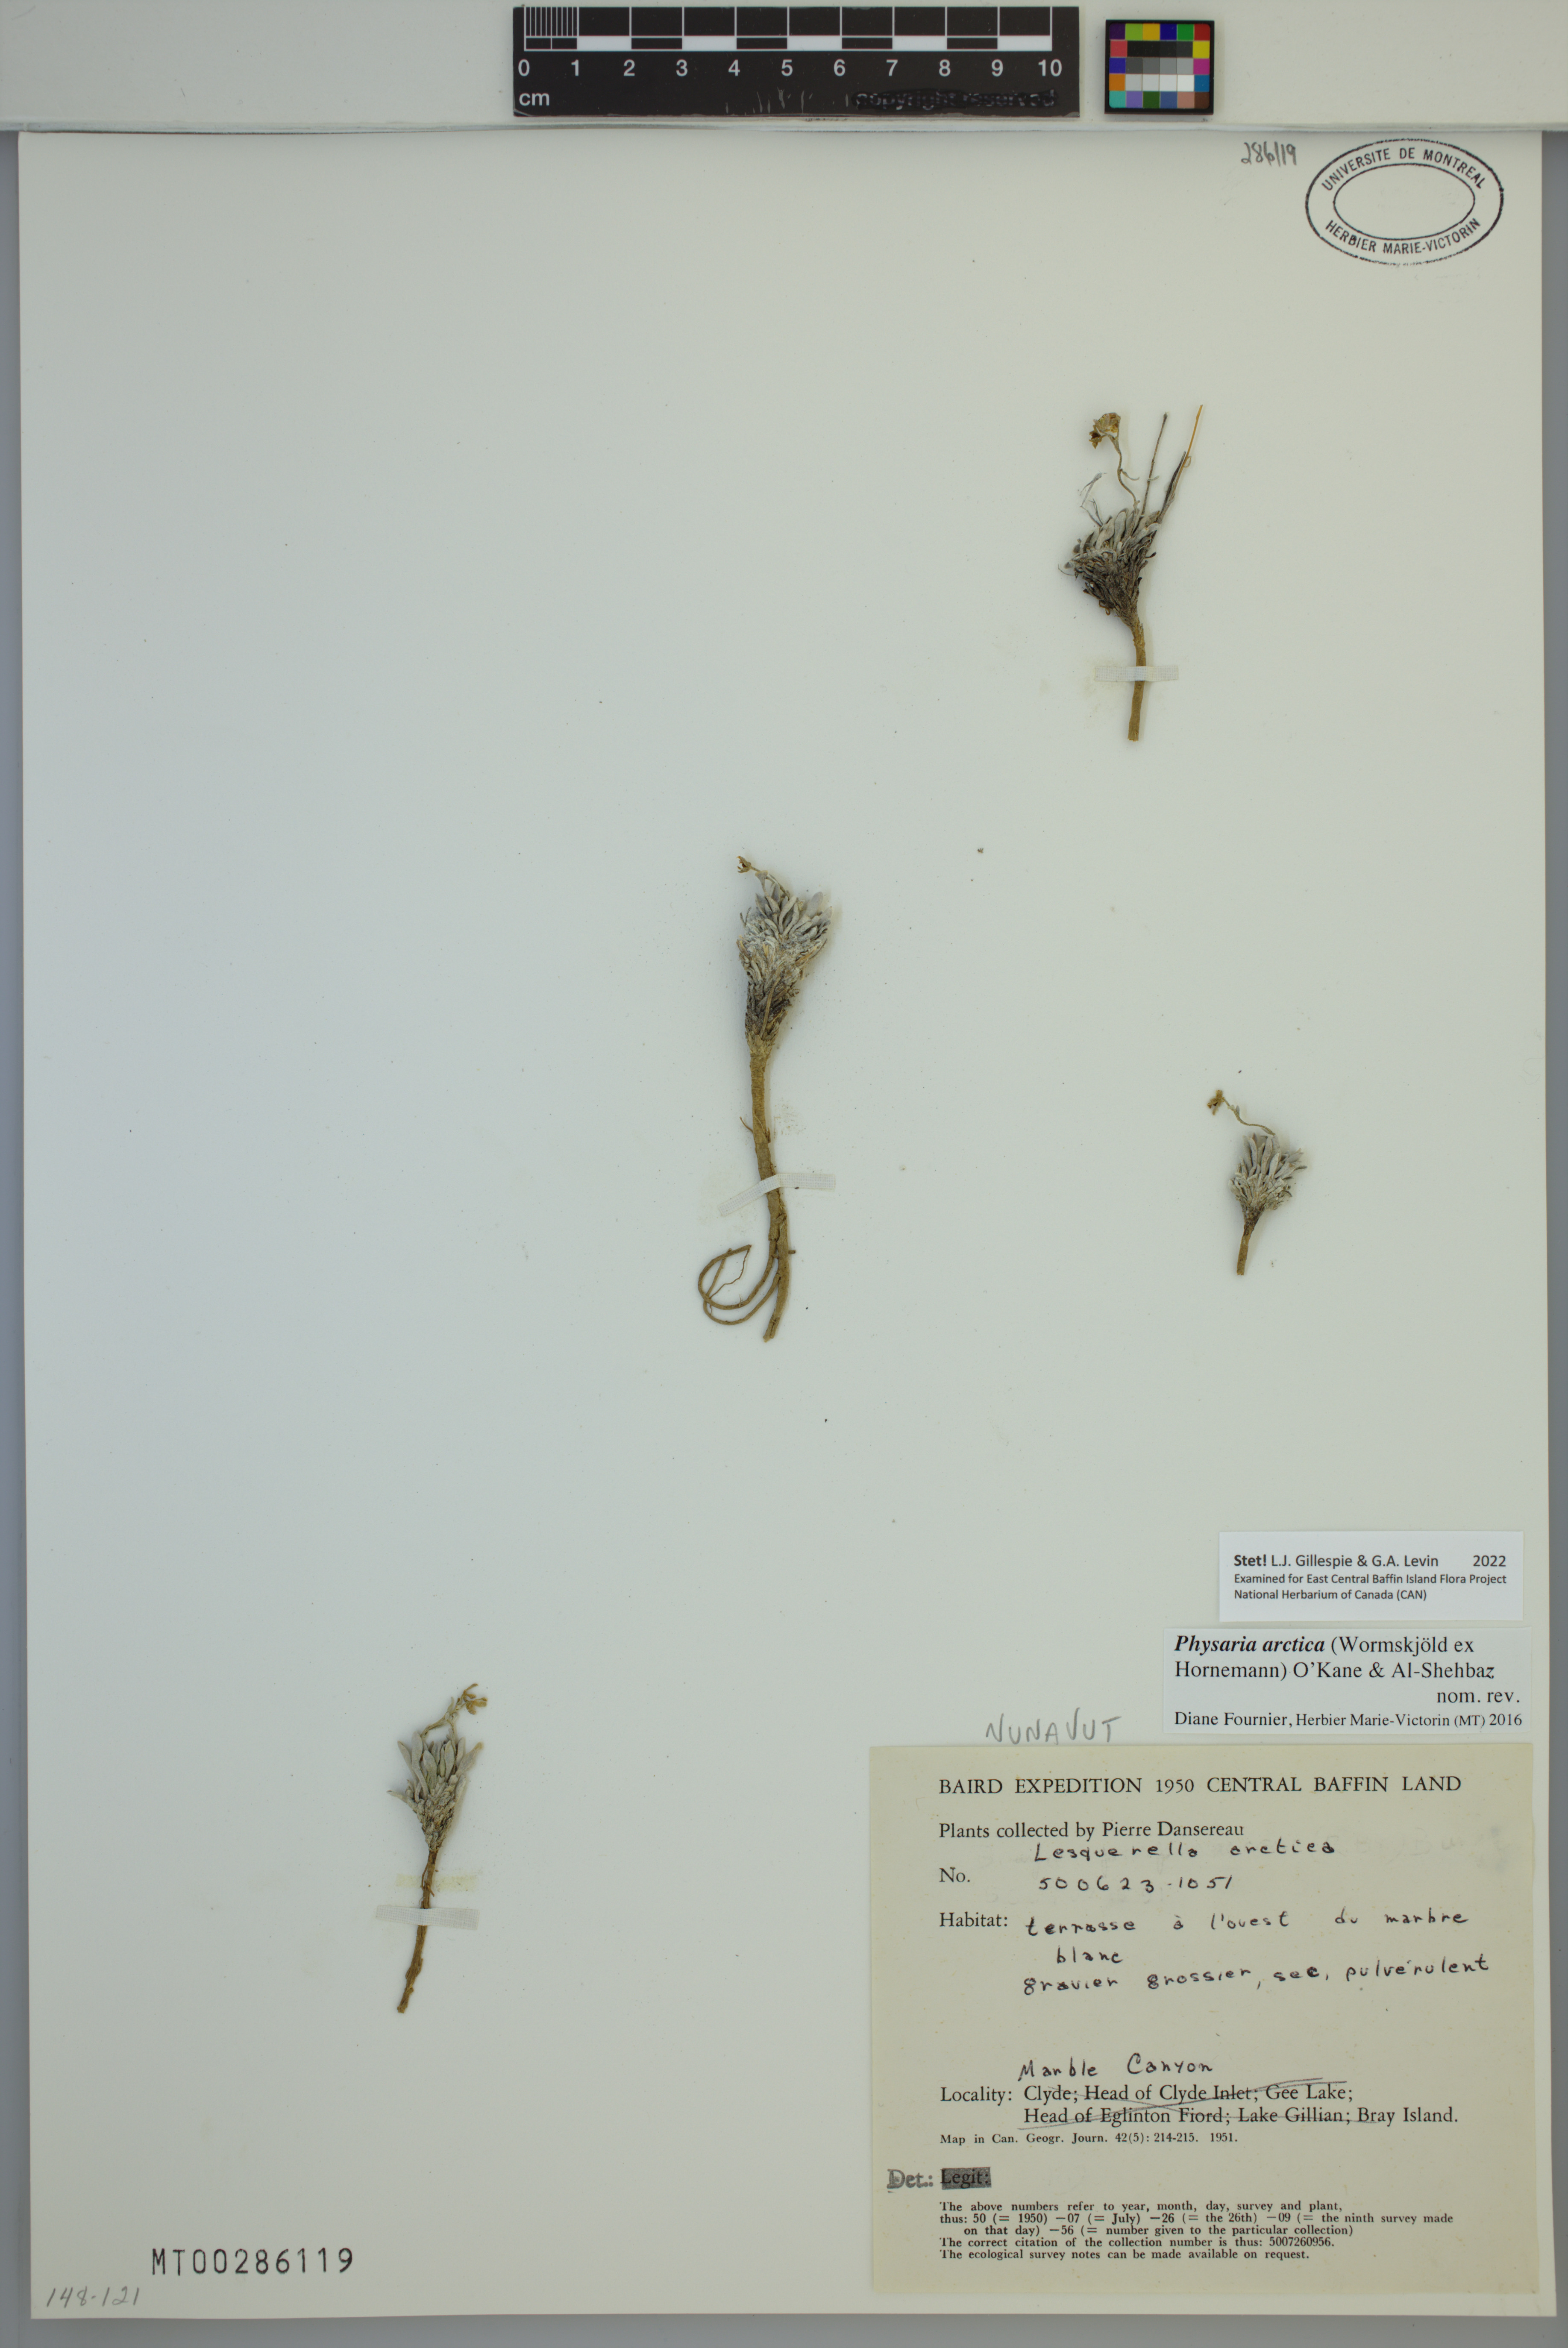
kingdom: Plantae
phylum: Tracheophyta
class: Magnoliopsida
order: Brassicales
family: Brassicaceae
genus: Physaria
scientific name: Physaria arctica
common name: Arctic bladderpod
